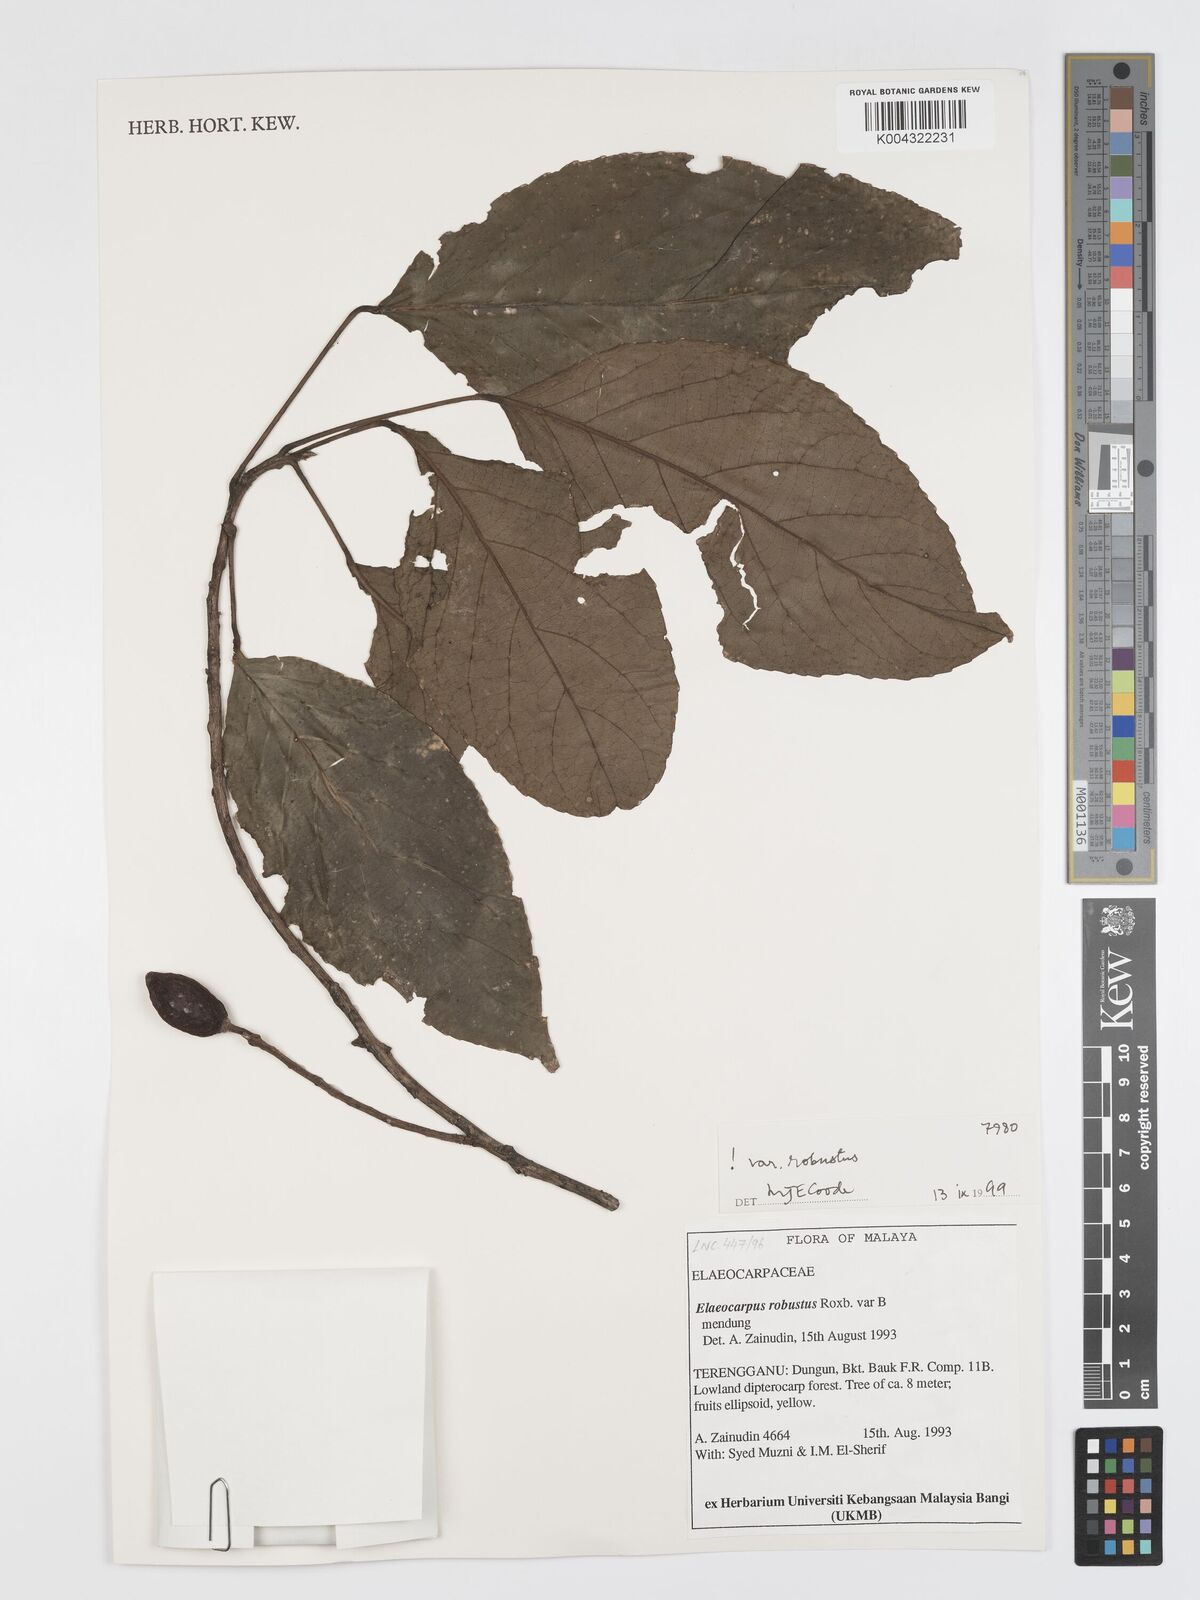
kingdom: Plantae
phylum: Tracheophyta
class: Magnoliopsida
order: Oxalidales
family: Elaeocarpaceae
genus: Elaeocarpus
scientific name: Elaeocarpus robustus
